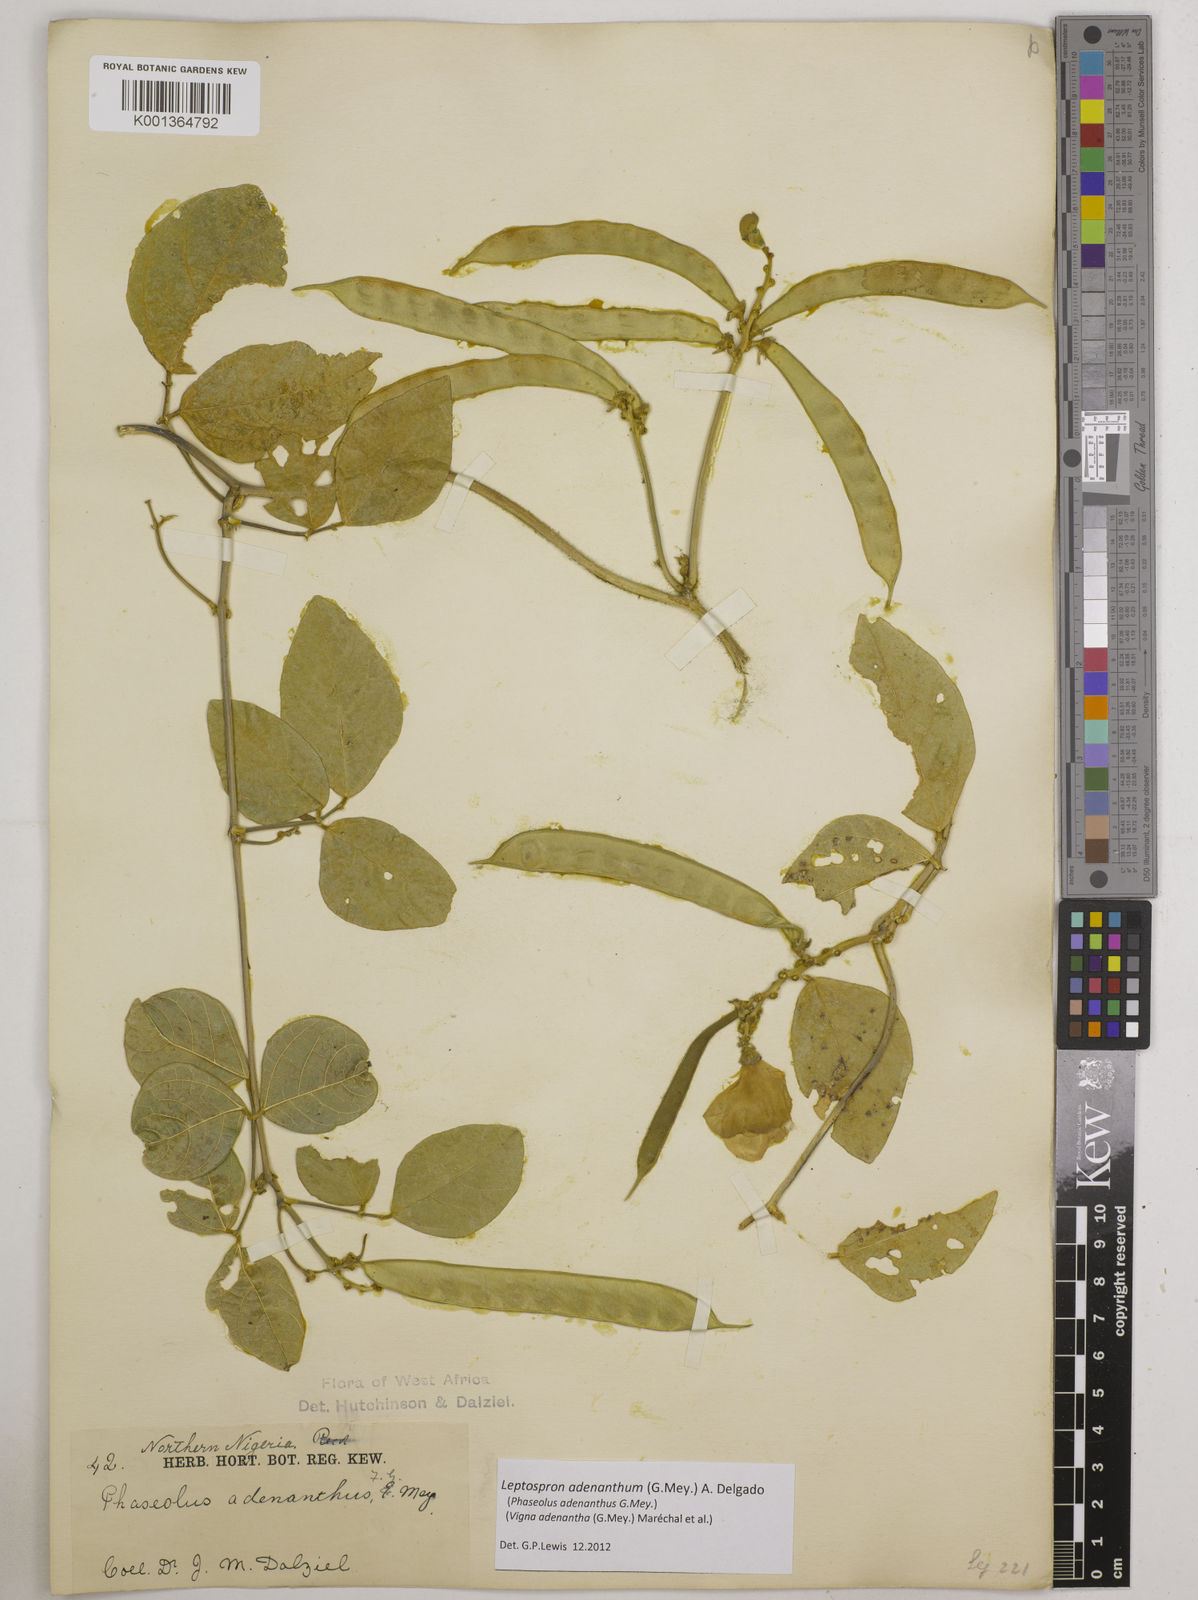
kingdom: Plantae
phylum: Tracheophyta
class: Magnoliopsida
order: Fabales
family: Fabaceae
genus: Leptospron
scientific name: Leptospron adenanthum
